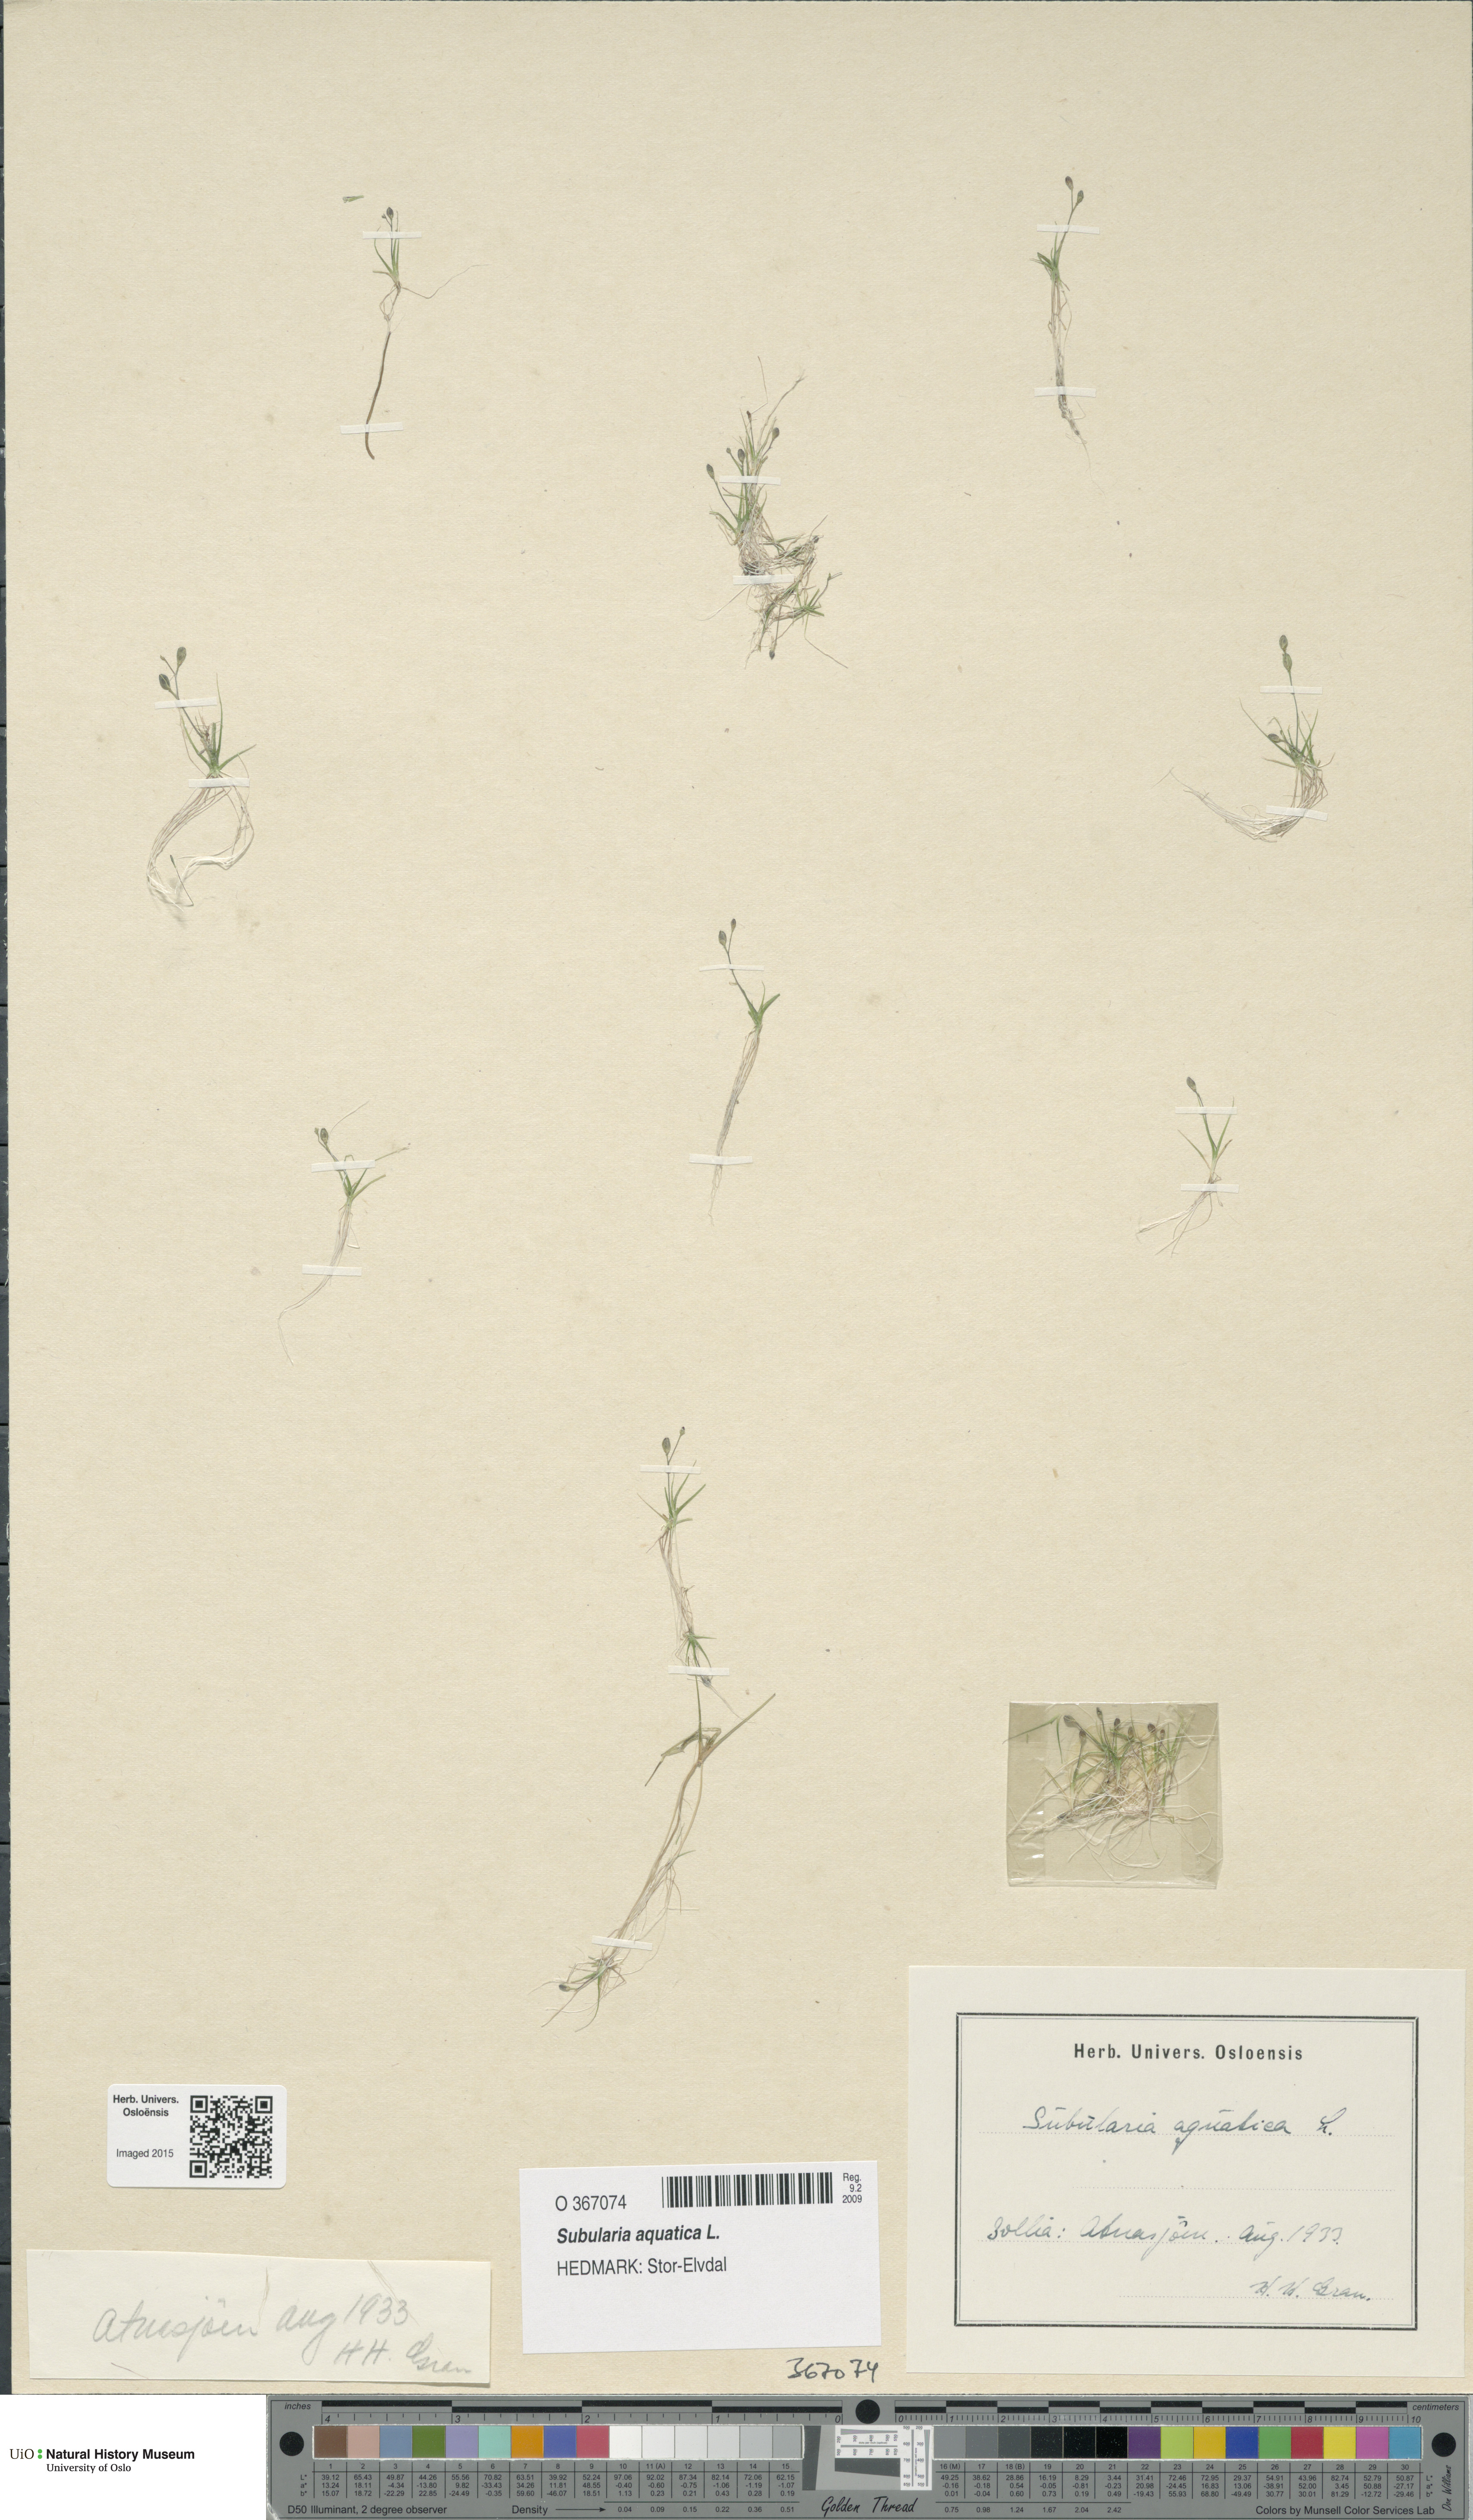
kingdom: Plantae
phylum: Tracheophyta
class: Magnoliopsida
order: Brassicales
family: Brassicaceae
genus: Subularia
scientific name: Subularia aquatica
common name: Awlwort
